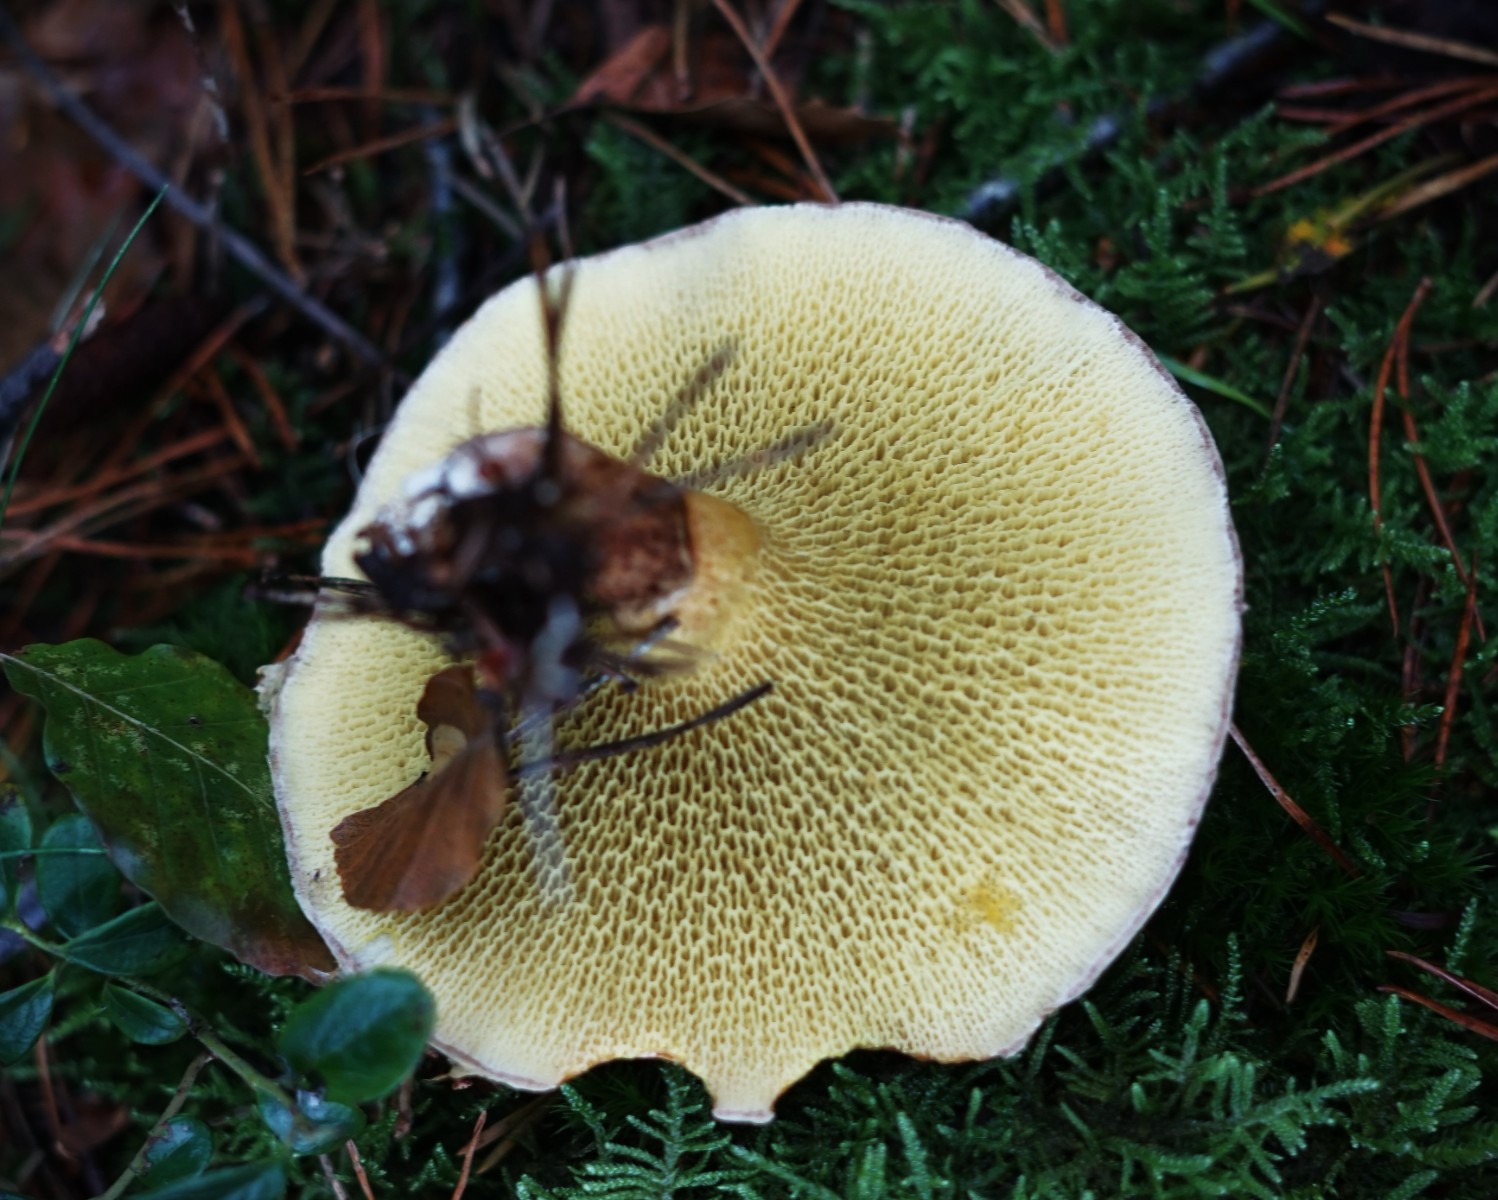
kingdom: Fungi
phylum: Basidiomycota
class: Agaricomycetes
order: Boletales
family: Suillaceae
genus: Suillus
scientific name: Suillus cavipes
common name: hulstokket slimrørhat
